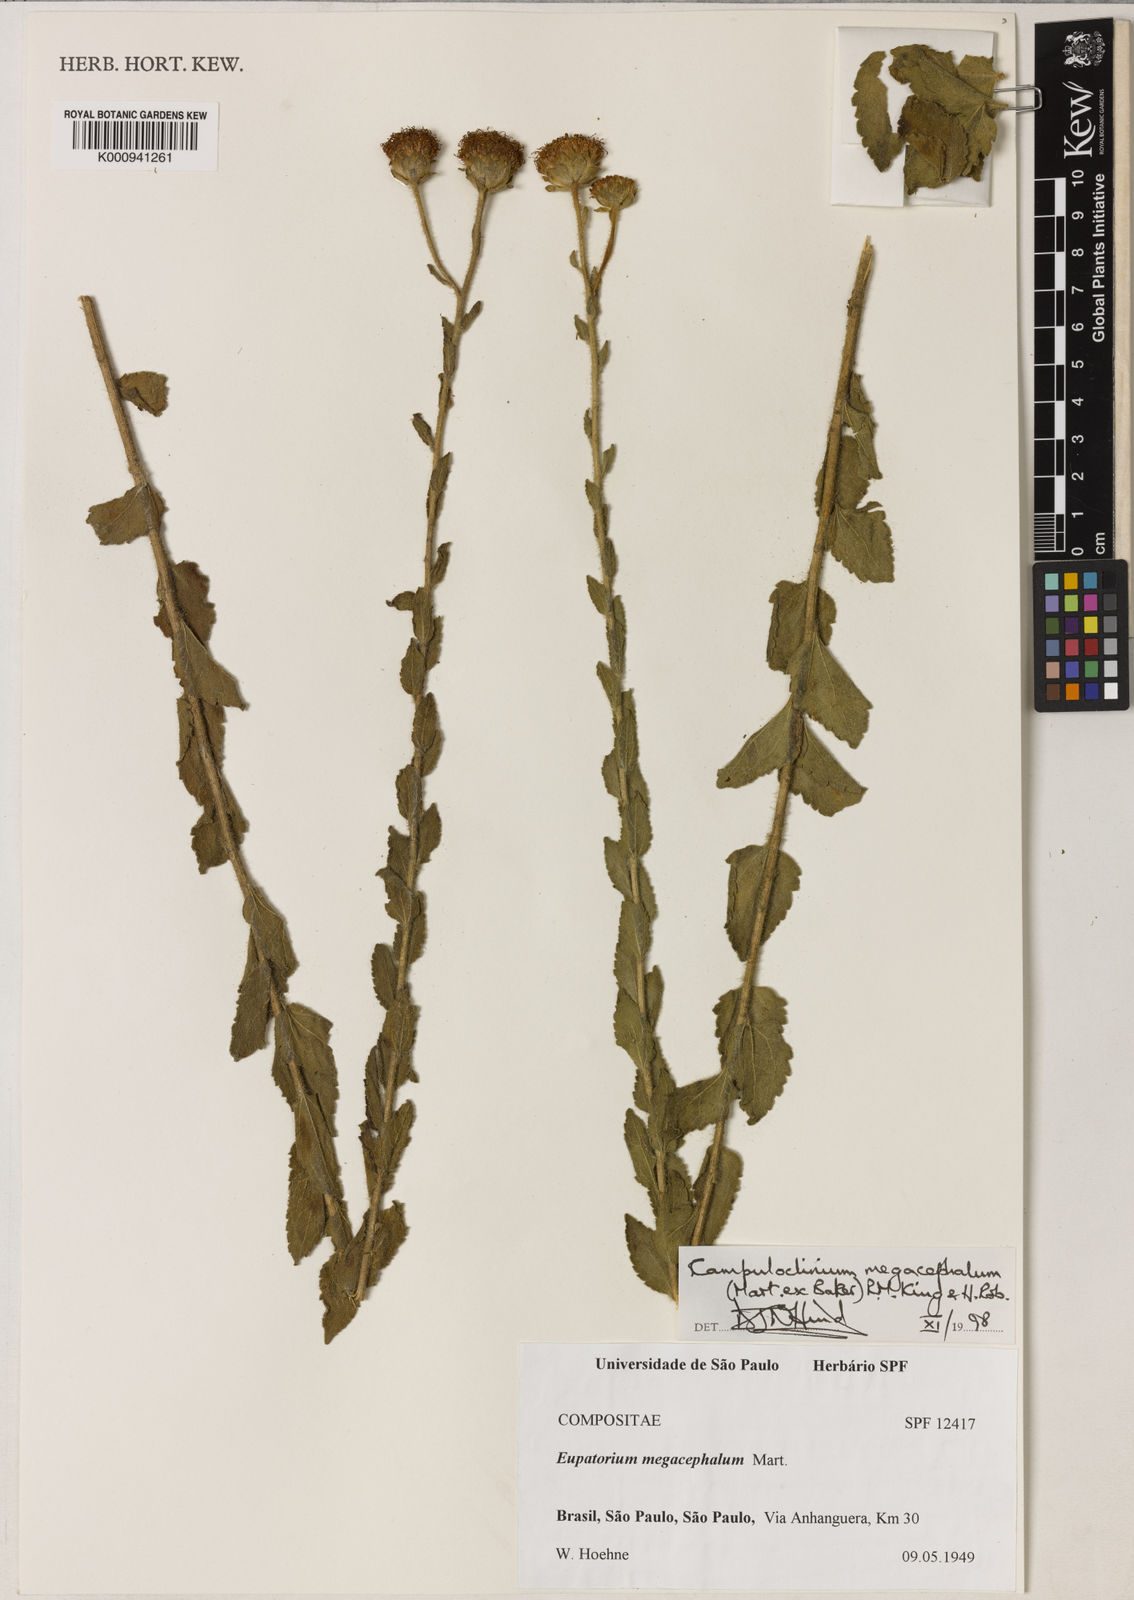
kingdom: Plantae
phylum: Tracheophyta
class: Magnoliopsida
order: Asterales
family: Asteraceae
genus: Campuloclinium
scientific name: Campuloclinium megacephalum
